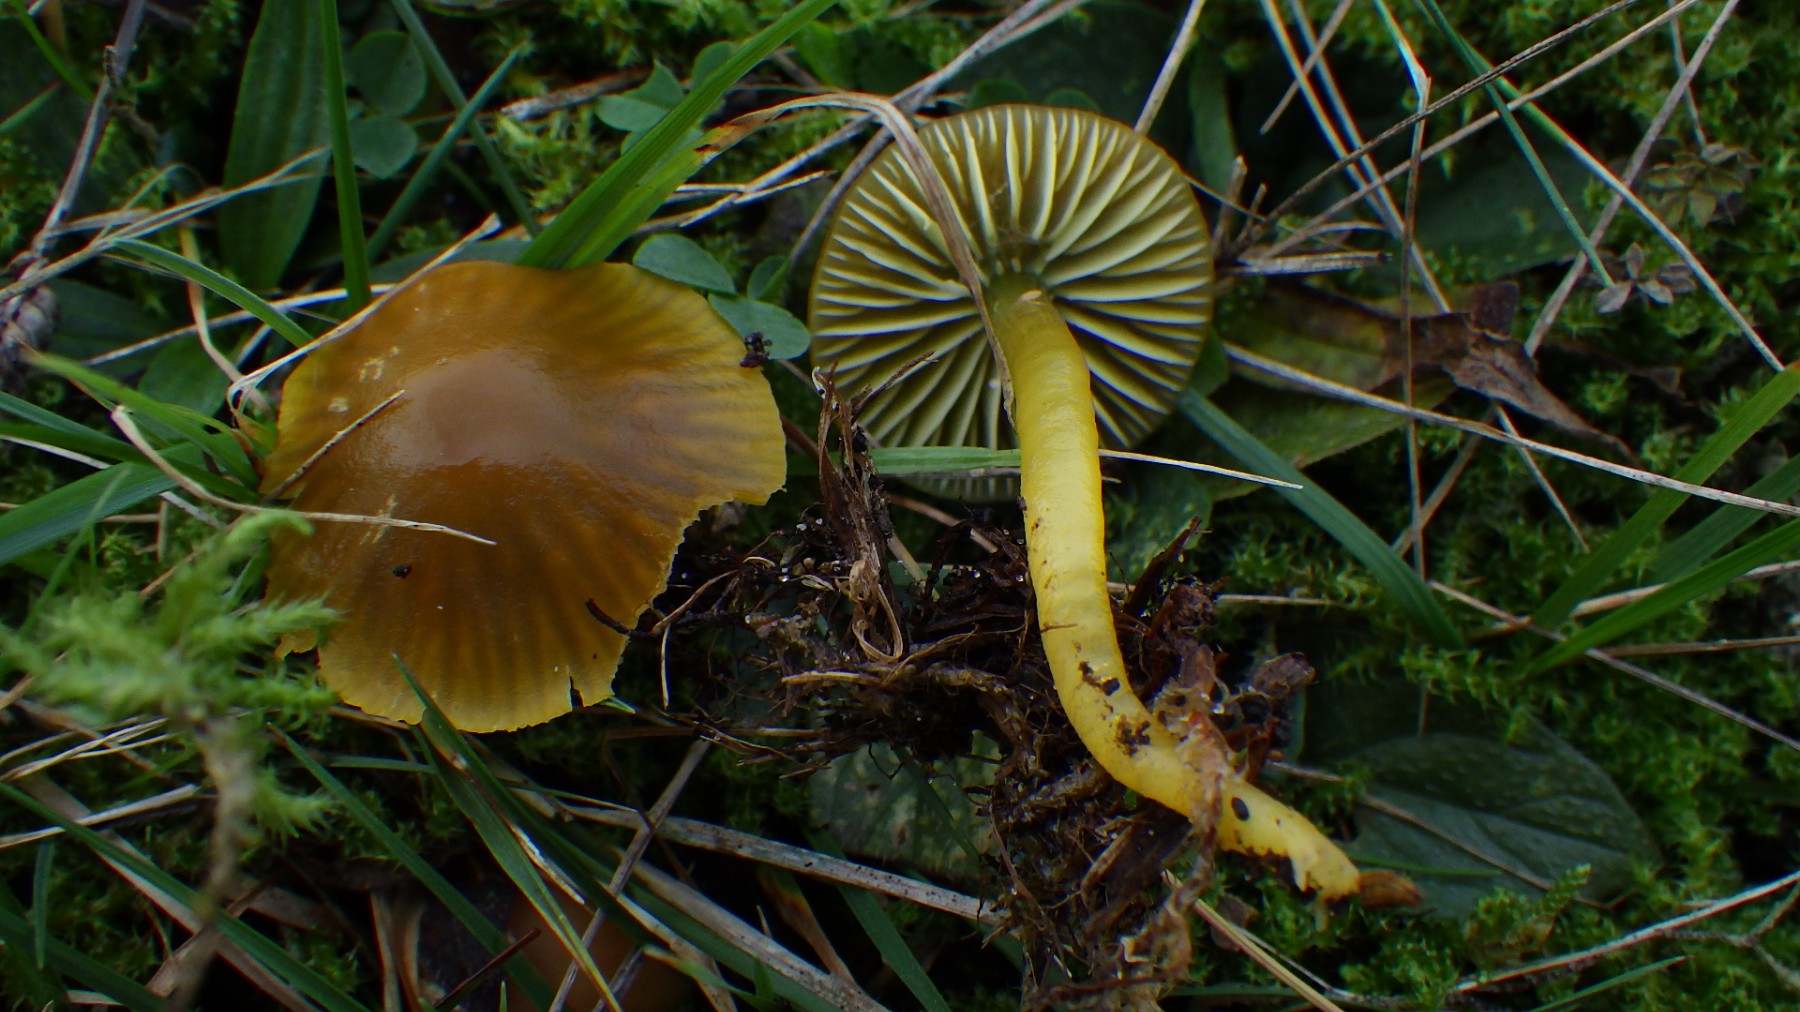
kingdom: Fungi
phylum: Basidiomycota
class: Agaricomycetes
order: Agaricales
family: Hygrophoraceae
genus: Gliophorus
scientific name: Gliophorus psittacinus
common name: papegøje-vokshat
